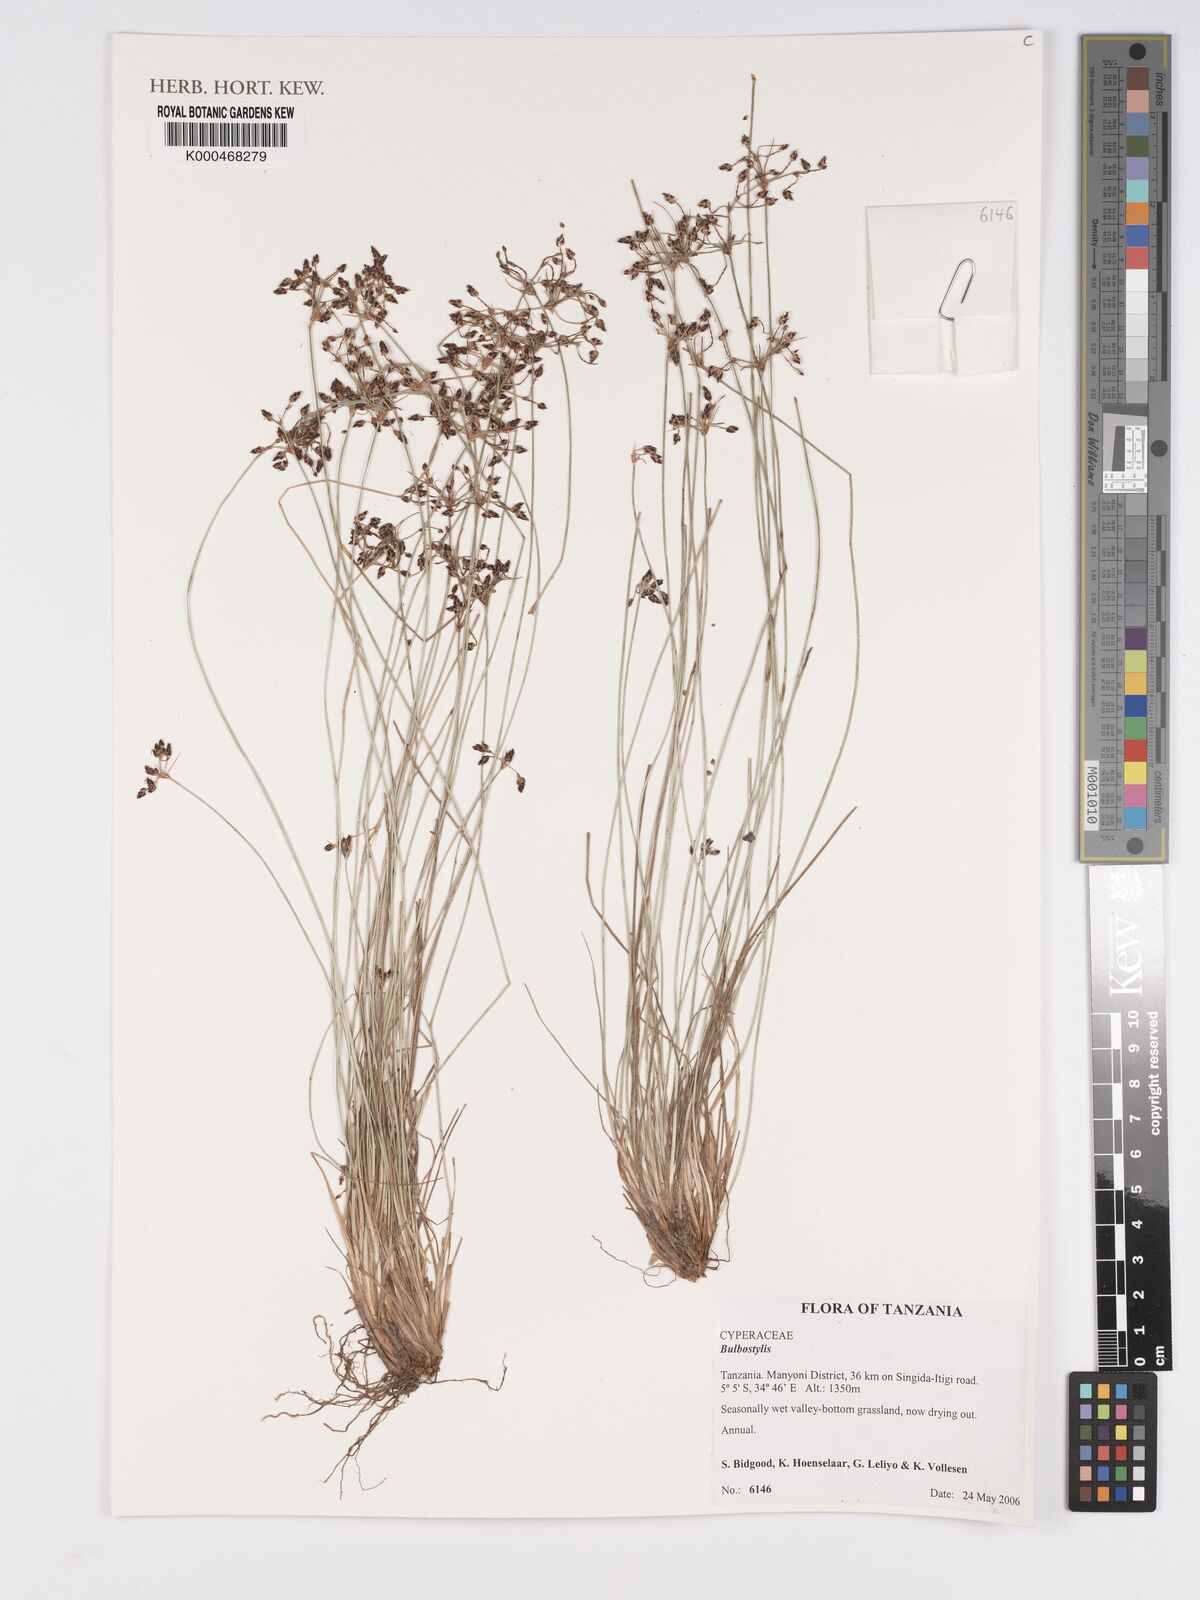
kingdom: Plantae
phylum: Tracheophyta
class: Liliopsida
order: Poales
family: Cyperaceae
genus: Bulbostylis
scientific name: Bulbostylis
